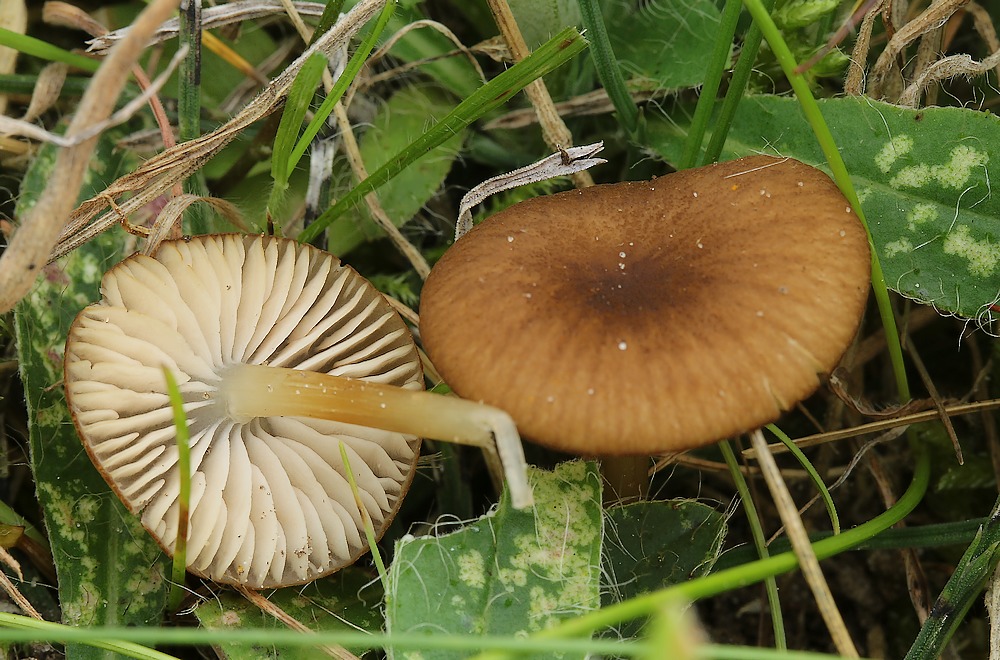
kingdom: Fungi
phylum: Basidiomycota
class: Agaricomycetes
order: Agaricales
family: Entolomataceae
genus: Entoloma
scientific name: Entoloma olivaceotinctum
